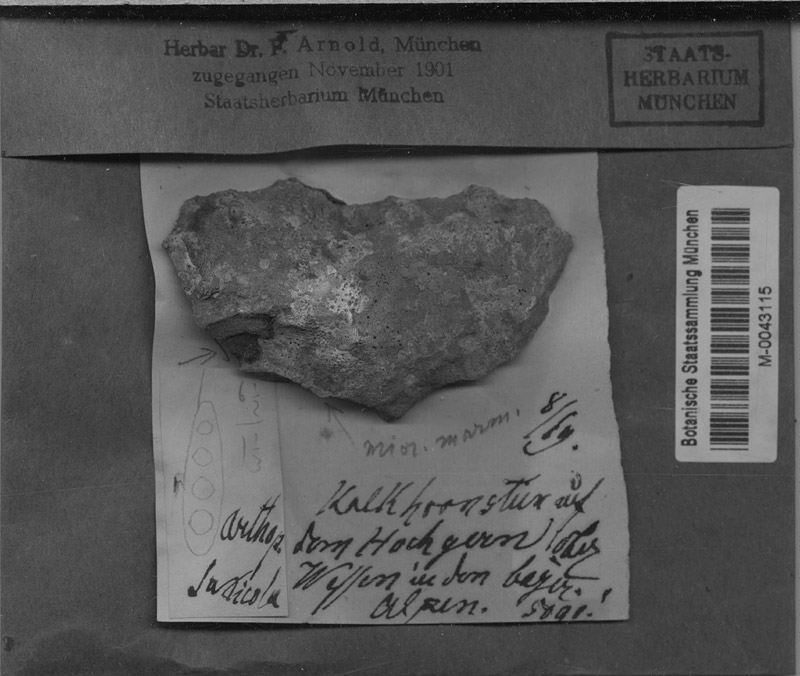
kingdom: Fungi
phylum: Ascomycota
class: Dothideomycetes
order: Pleosporales
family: Naetrocymbaceae
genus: Naetrocymbe
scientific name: Naetrocymbe saxicola
